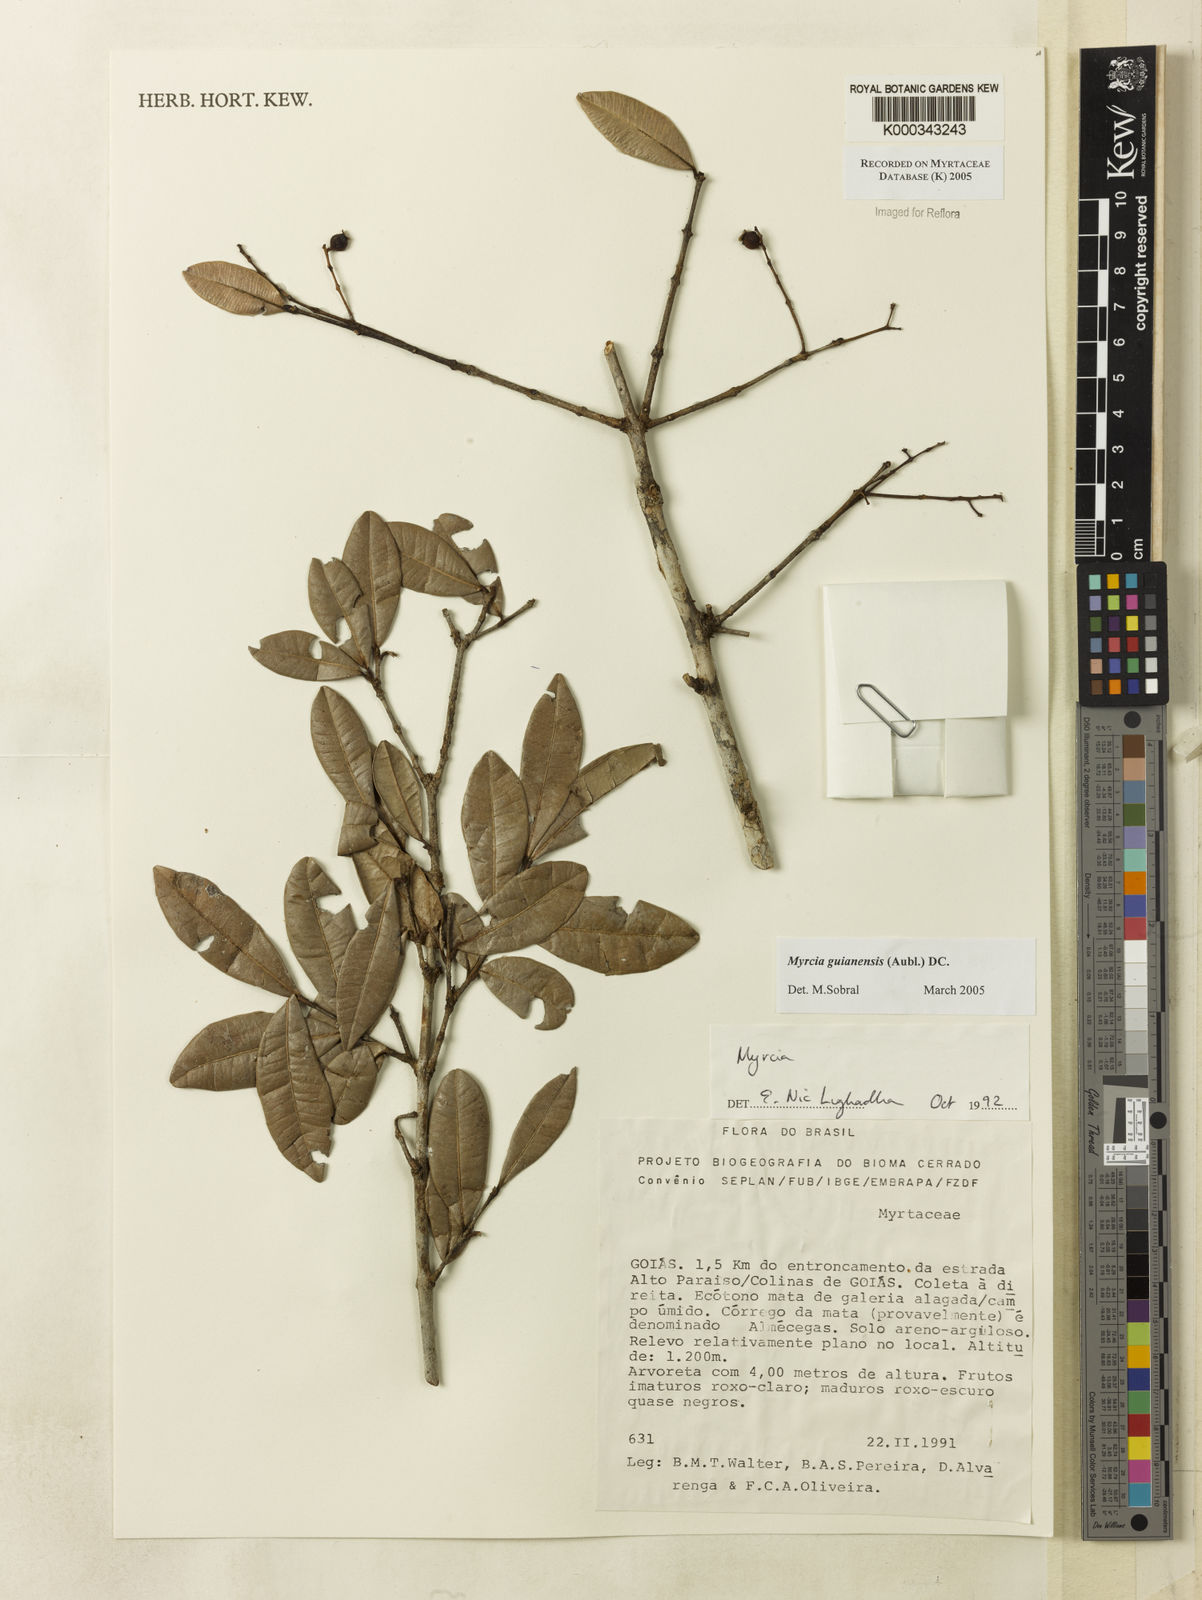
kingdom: Plantae
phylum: Tracheophyta
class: Magnoliopsida
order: Myrtales
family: Myrtaceae
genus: Myrcia
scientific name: Myrcia guianensis
